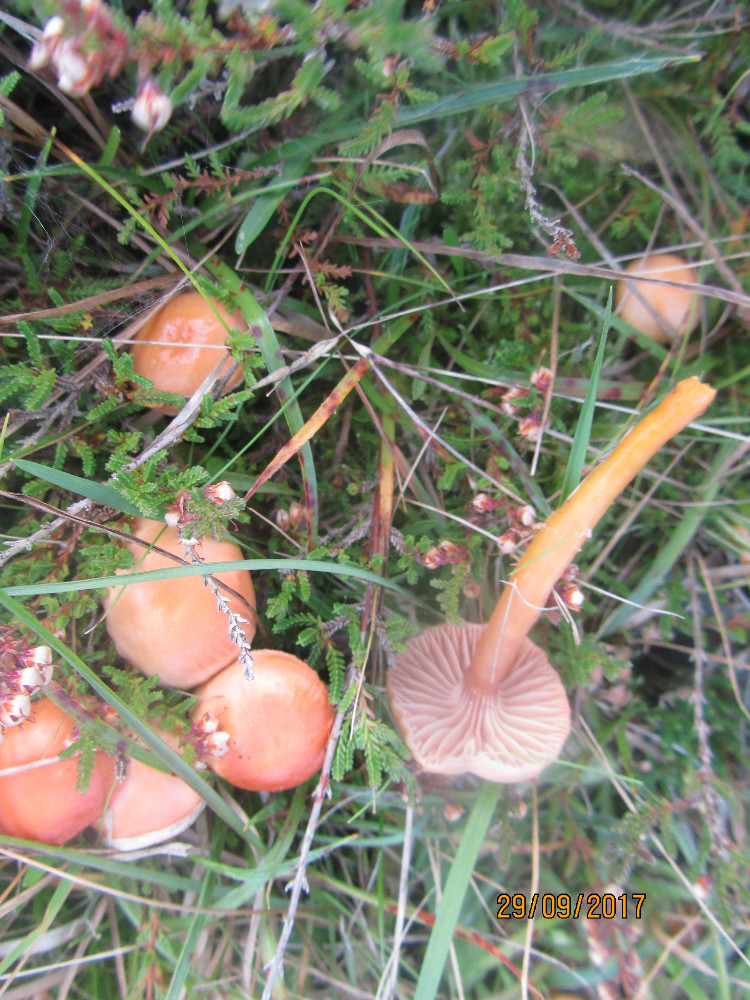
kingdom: Fungi
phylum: Basidiomycota
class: Agaricomycetes
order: Agaricales
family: Hygrophoraceae
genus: Gliophorus
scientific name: Gliophorus laetus
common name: brusk-vokshat
